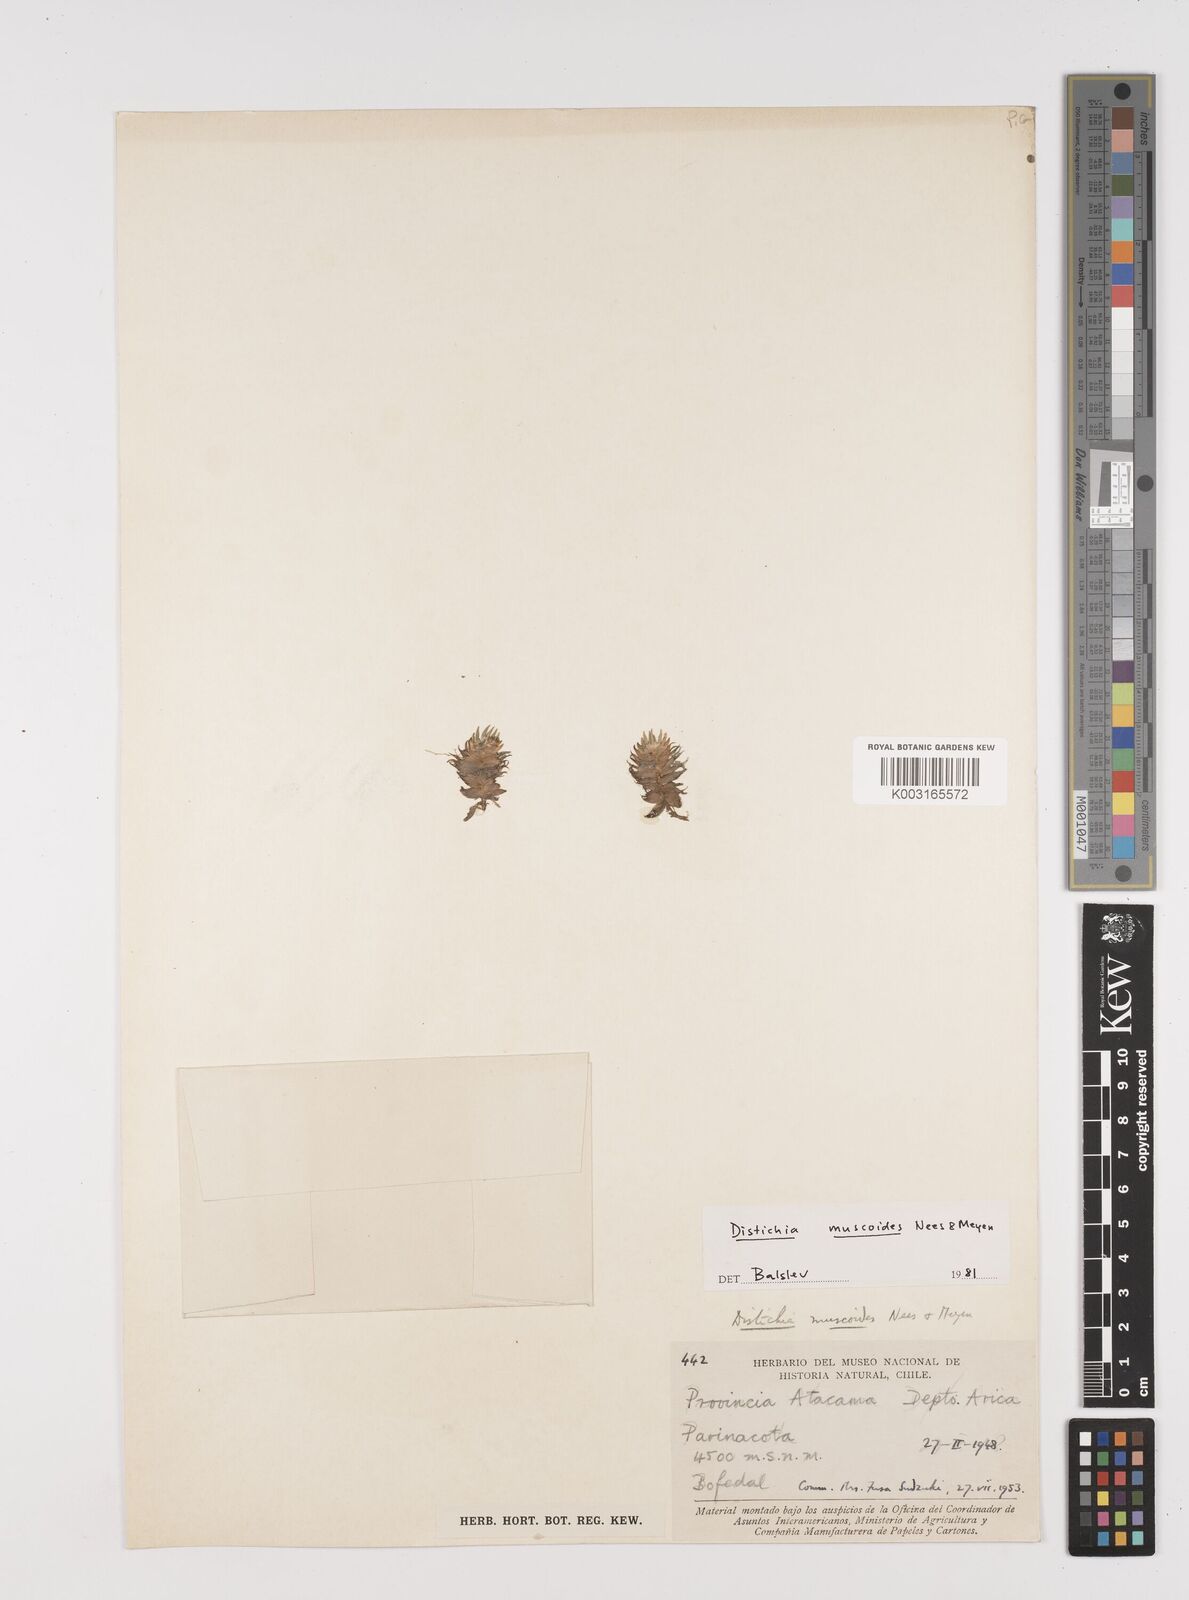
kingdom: Plantae
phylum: Tracheophyta
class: Liliopsida
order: Poales
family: Juncaceae
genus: Distichia
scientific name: Distichia muscoides
